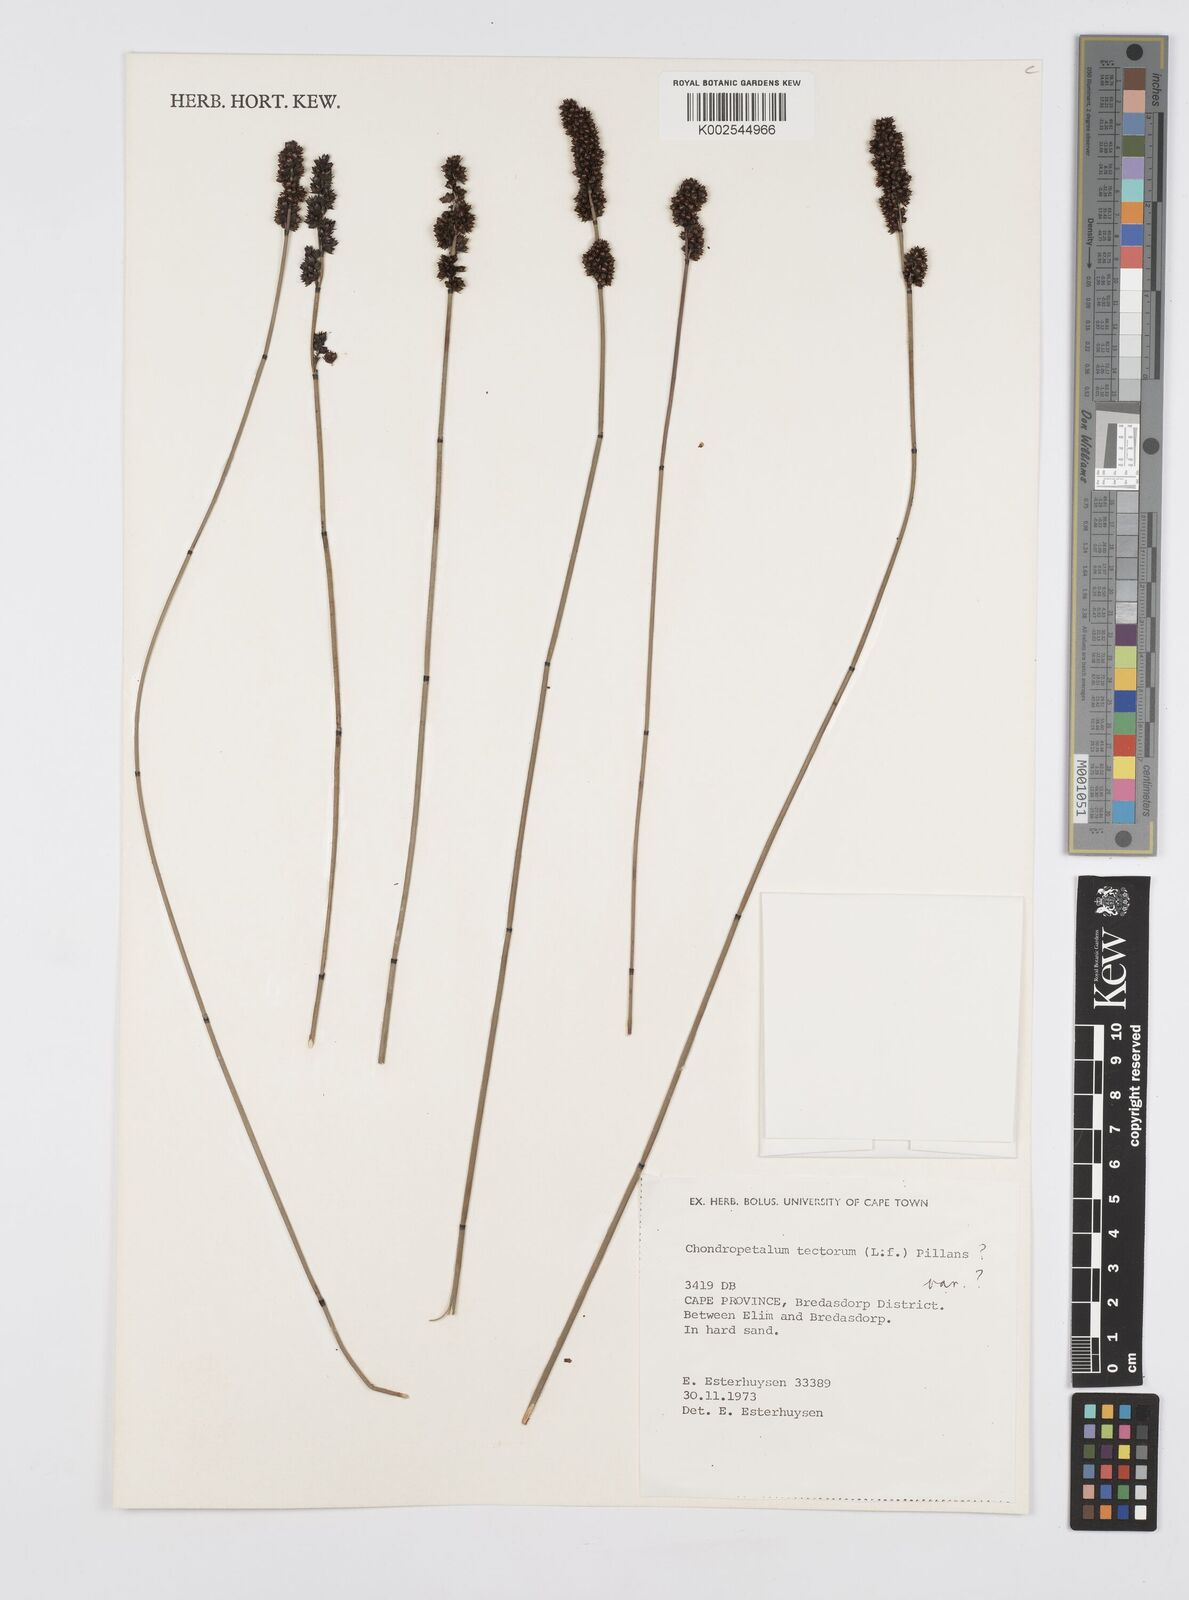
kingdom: Plantae
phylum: Tracheophyta
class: Liliopsida
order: Poales
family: Restionaceae
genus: Elegia
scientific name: Elegia tectorum
